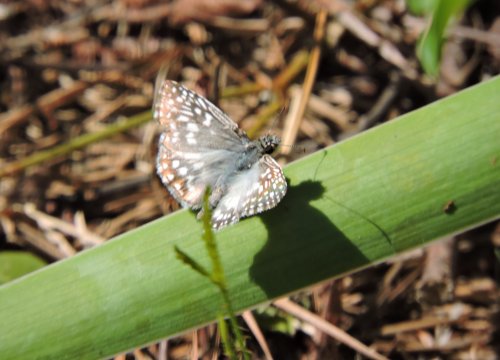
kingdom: Animalia
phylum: Arthropoda
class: Insecta
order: Lepidoptera
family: Hesperiidae
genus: Pyrgus
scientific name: Pyrgus oileus
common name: Tropical Checkered-Skipper
